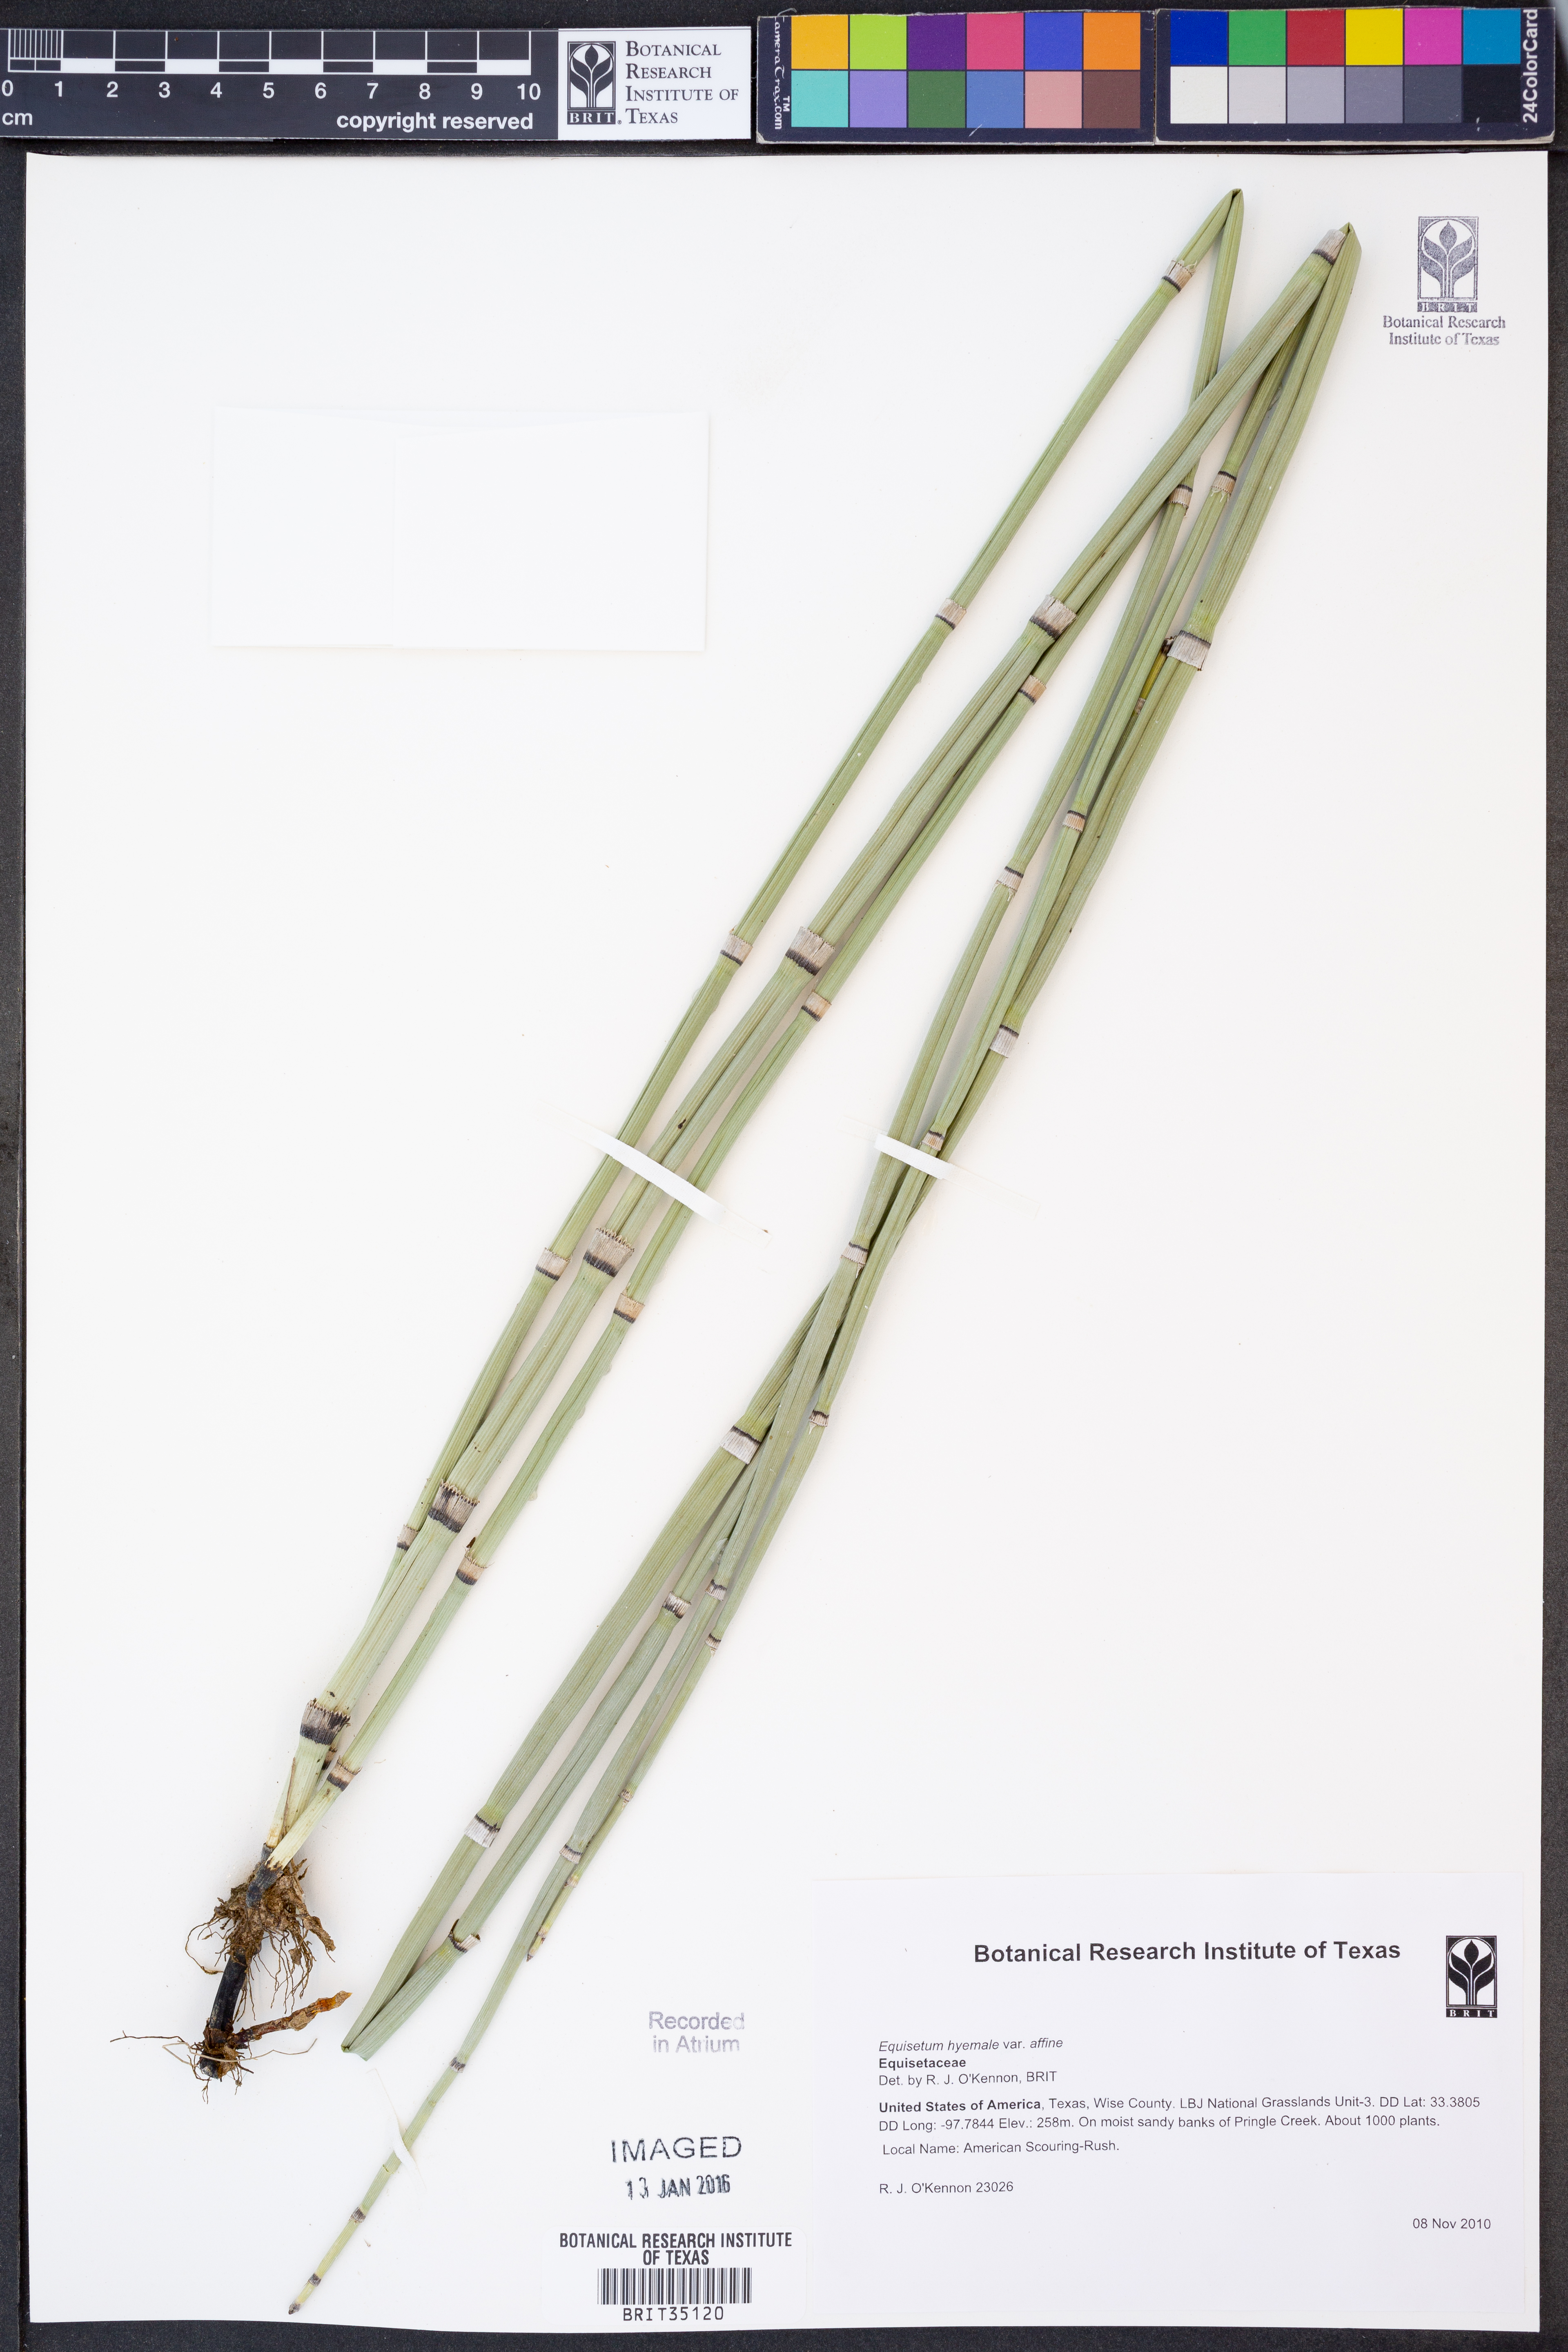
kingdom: Plantae
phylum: Tracheophyta
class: Polypodiopsida
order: Equisetales
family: Equisetaceae
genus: Equisetum
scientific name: Equisetum praealtum
